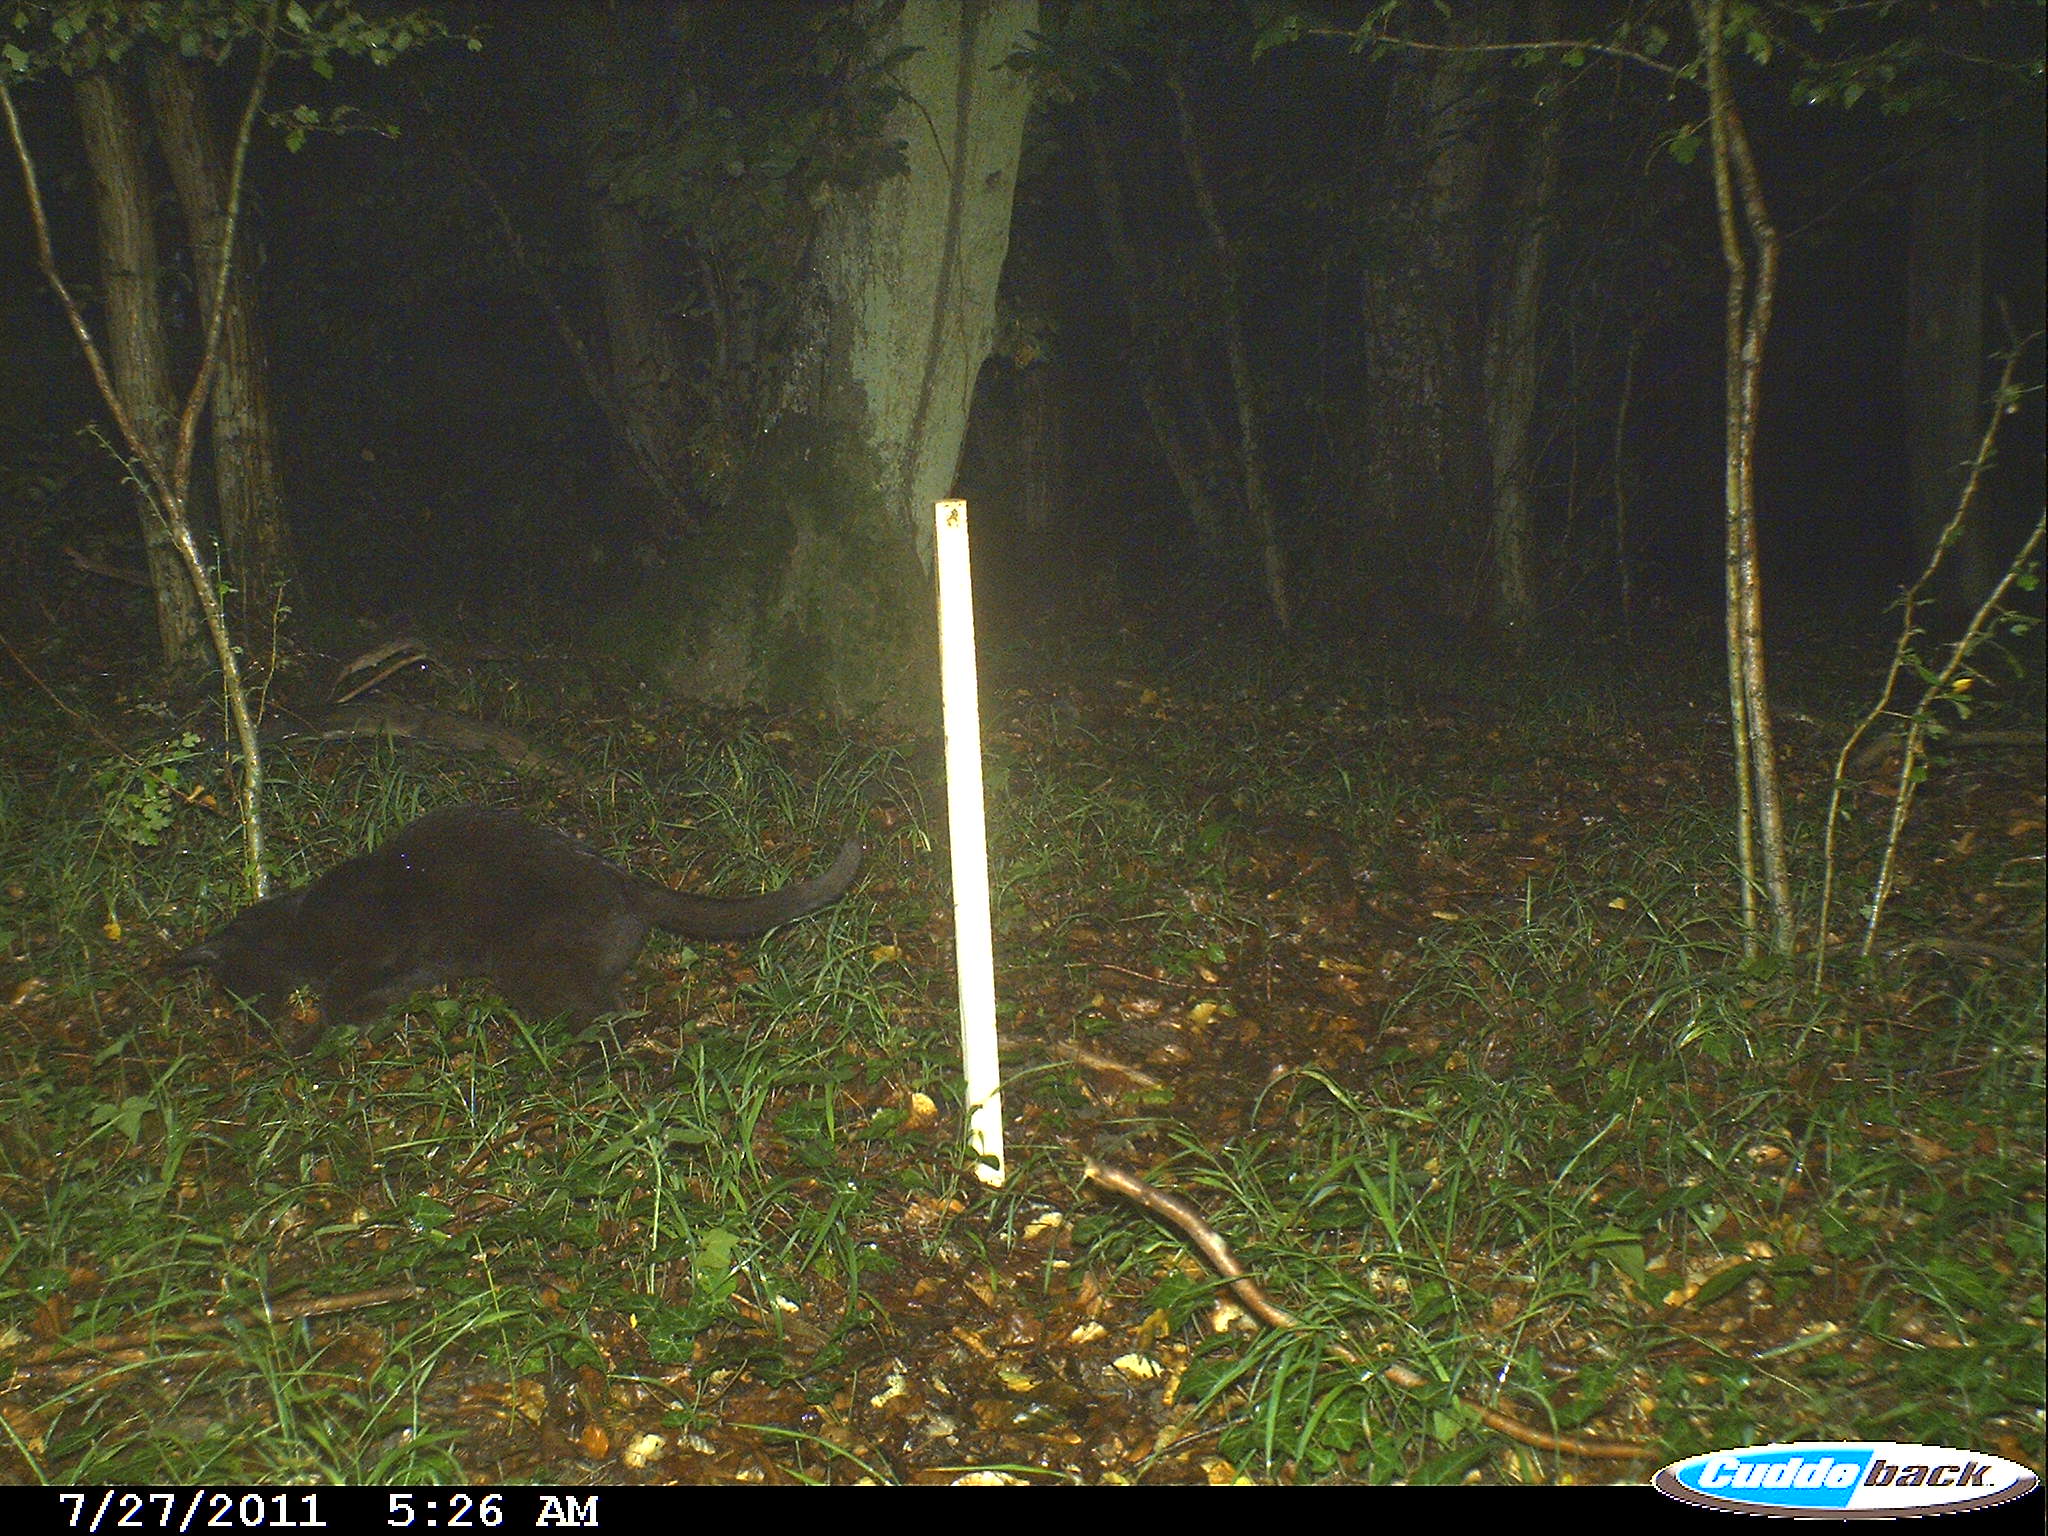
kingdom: Animalia
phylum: Chordata
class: Mammalia
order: Carnivora
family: Felidae
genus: Felis
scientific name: Felis catus
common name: Domestic cat
